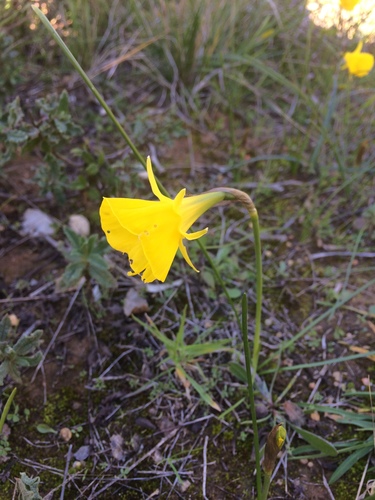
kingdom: Plantae
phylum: Tracheophyta
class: Liliopsida
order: Asparagales
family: Amaryllidaceae
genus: Narcissus
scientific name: Narcissus bulbocodium
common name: Hoop-petticoat daffodil
